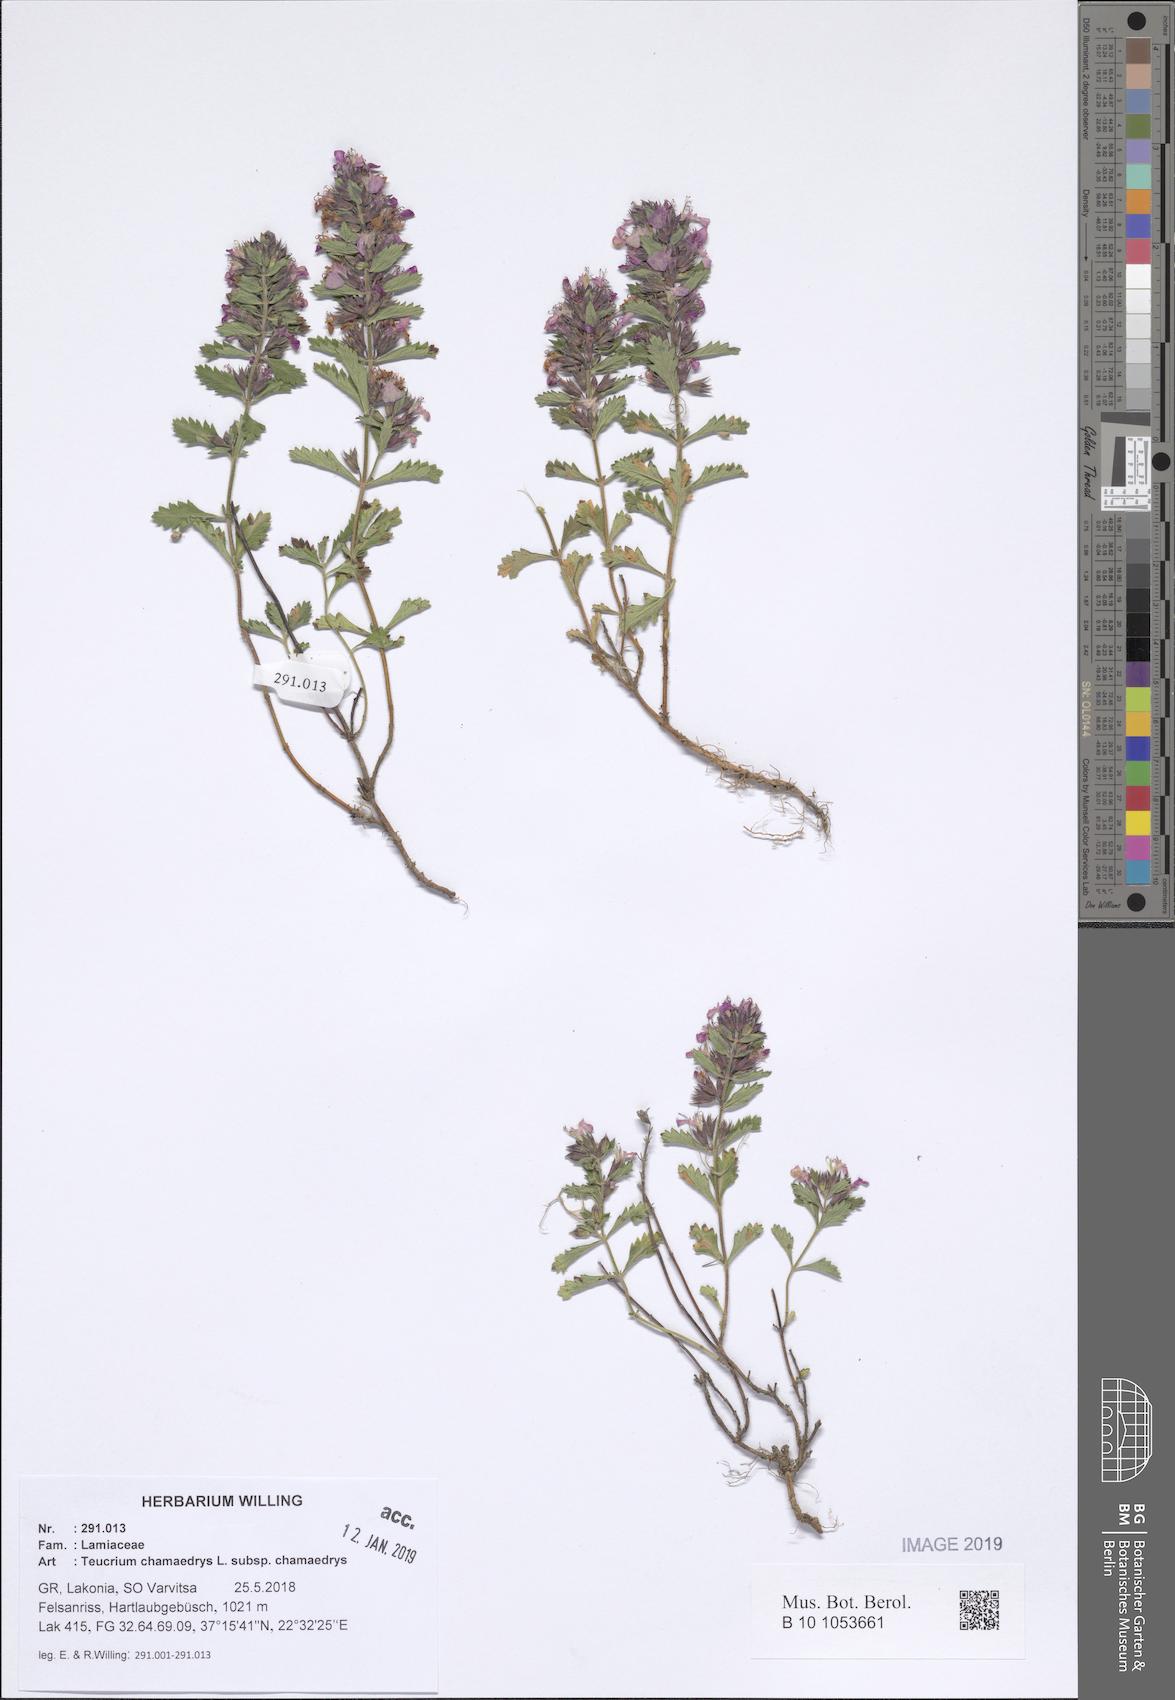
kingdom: Plantae
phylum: Tracheophyta
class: Magnoliopsida
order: Lamiales
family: Lamiaceae
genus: Teucrium
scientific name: Teucrium chamaedrys
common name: Wall germander
